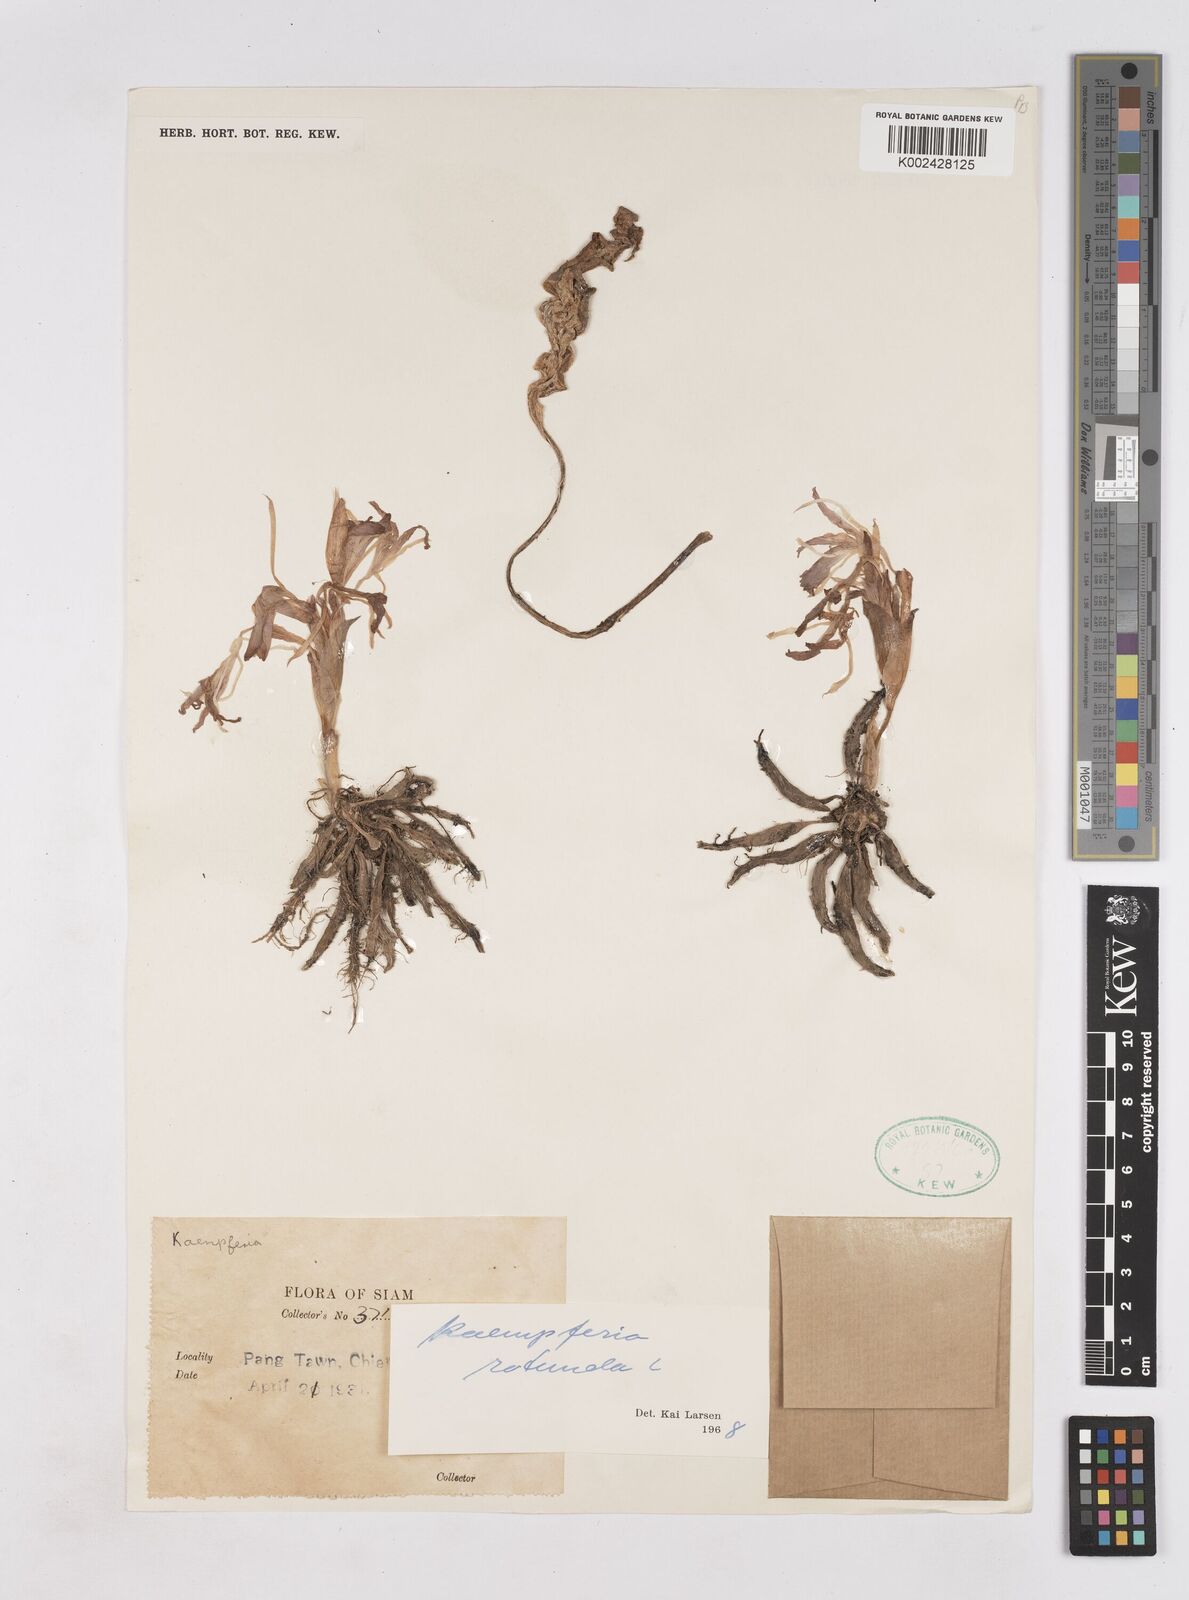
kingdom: Plantae
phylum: Tracheophyta
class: Liliopsida
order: Zingiberales
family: Zingiberaceae
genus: Kaempferia
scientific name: Kaempferia rotunda
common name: Tropical-crocus
